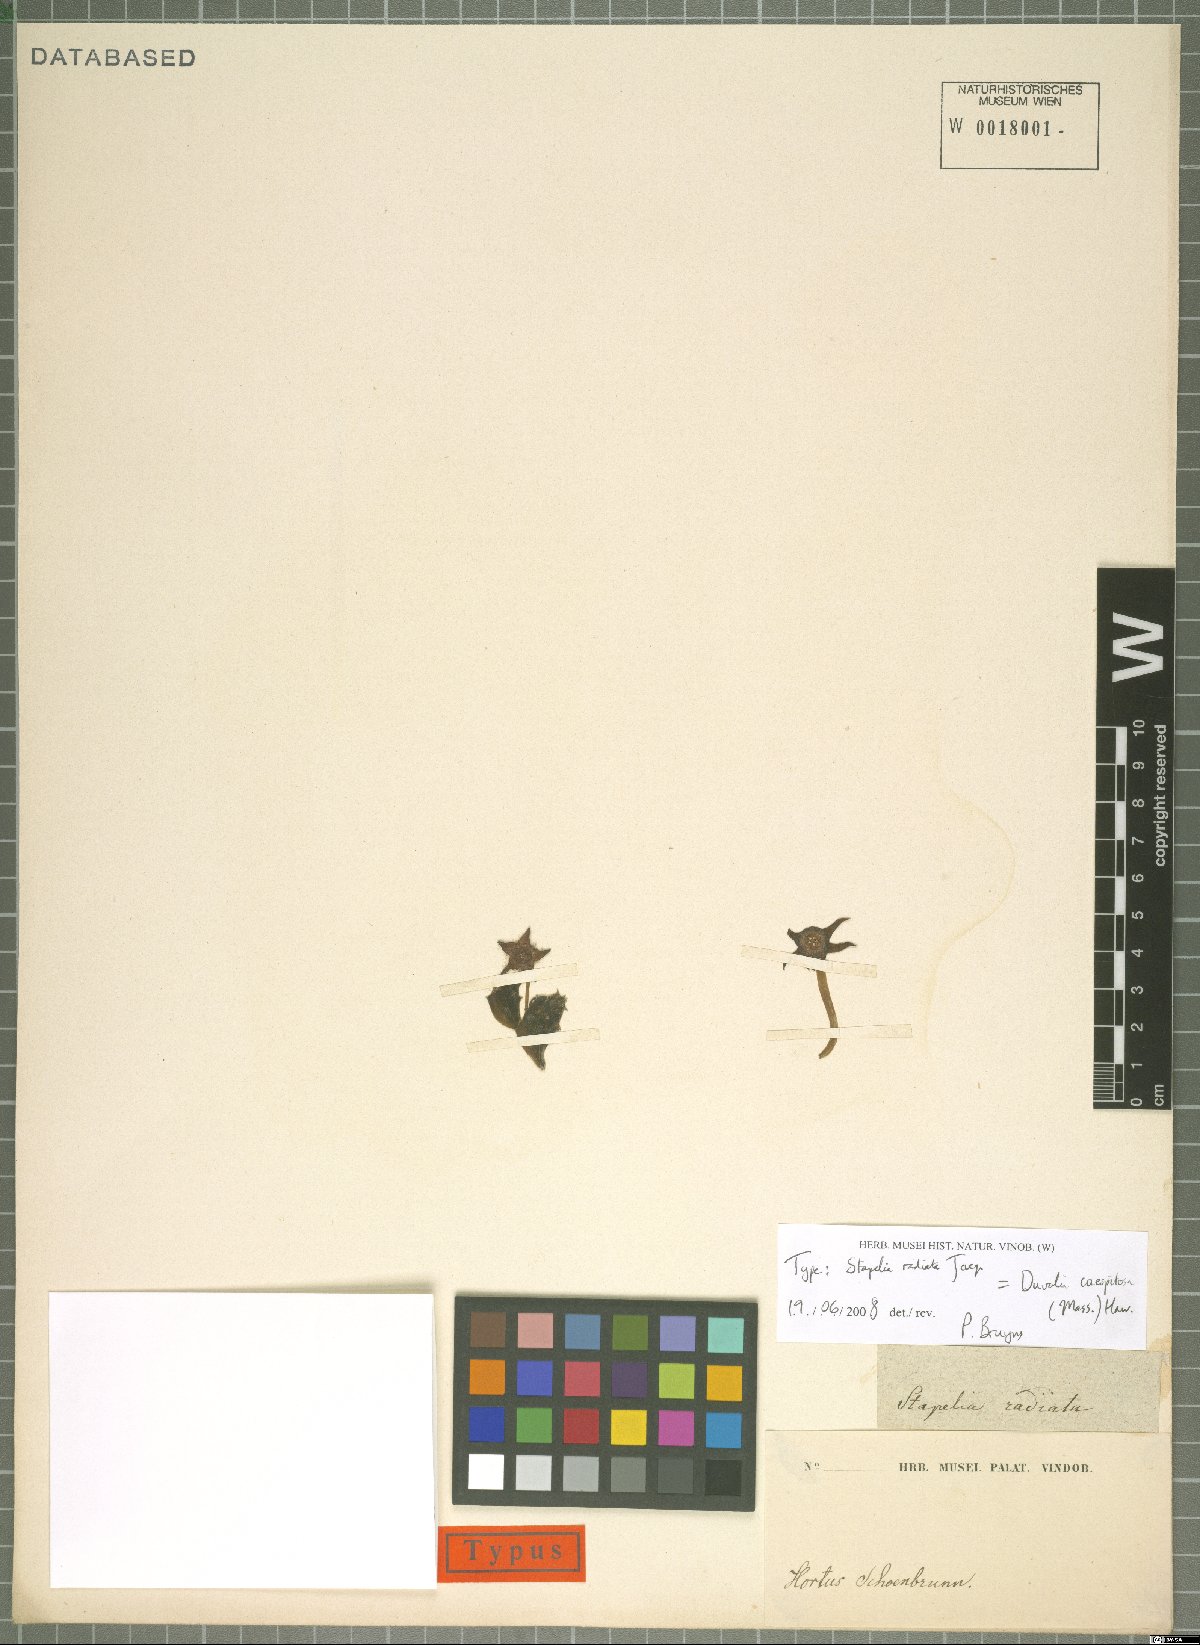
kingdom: Plantae
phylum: Tracheophyta
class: Magnoliopsida
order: Gentianales
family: Apocynaceae
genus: Ceropegia
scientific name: Ceropegia caespitosa
